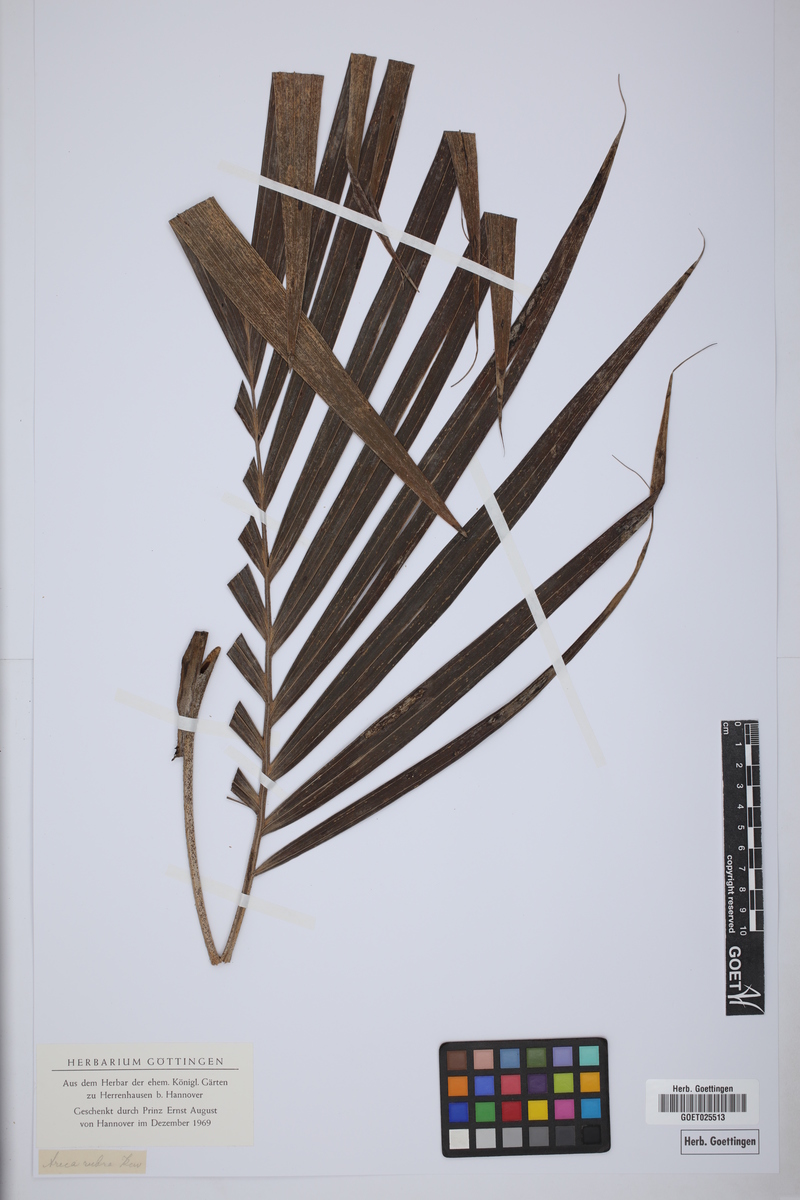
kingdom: Plantae
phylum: Tracheophyta
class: Liliopsida
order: Arecales
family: Arecaceae
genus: Dictyosperma
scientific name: Dictyosperma album
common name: Common princess palm
